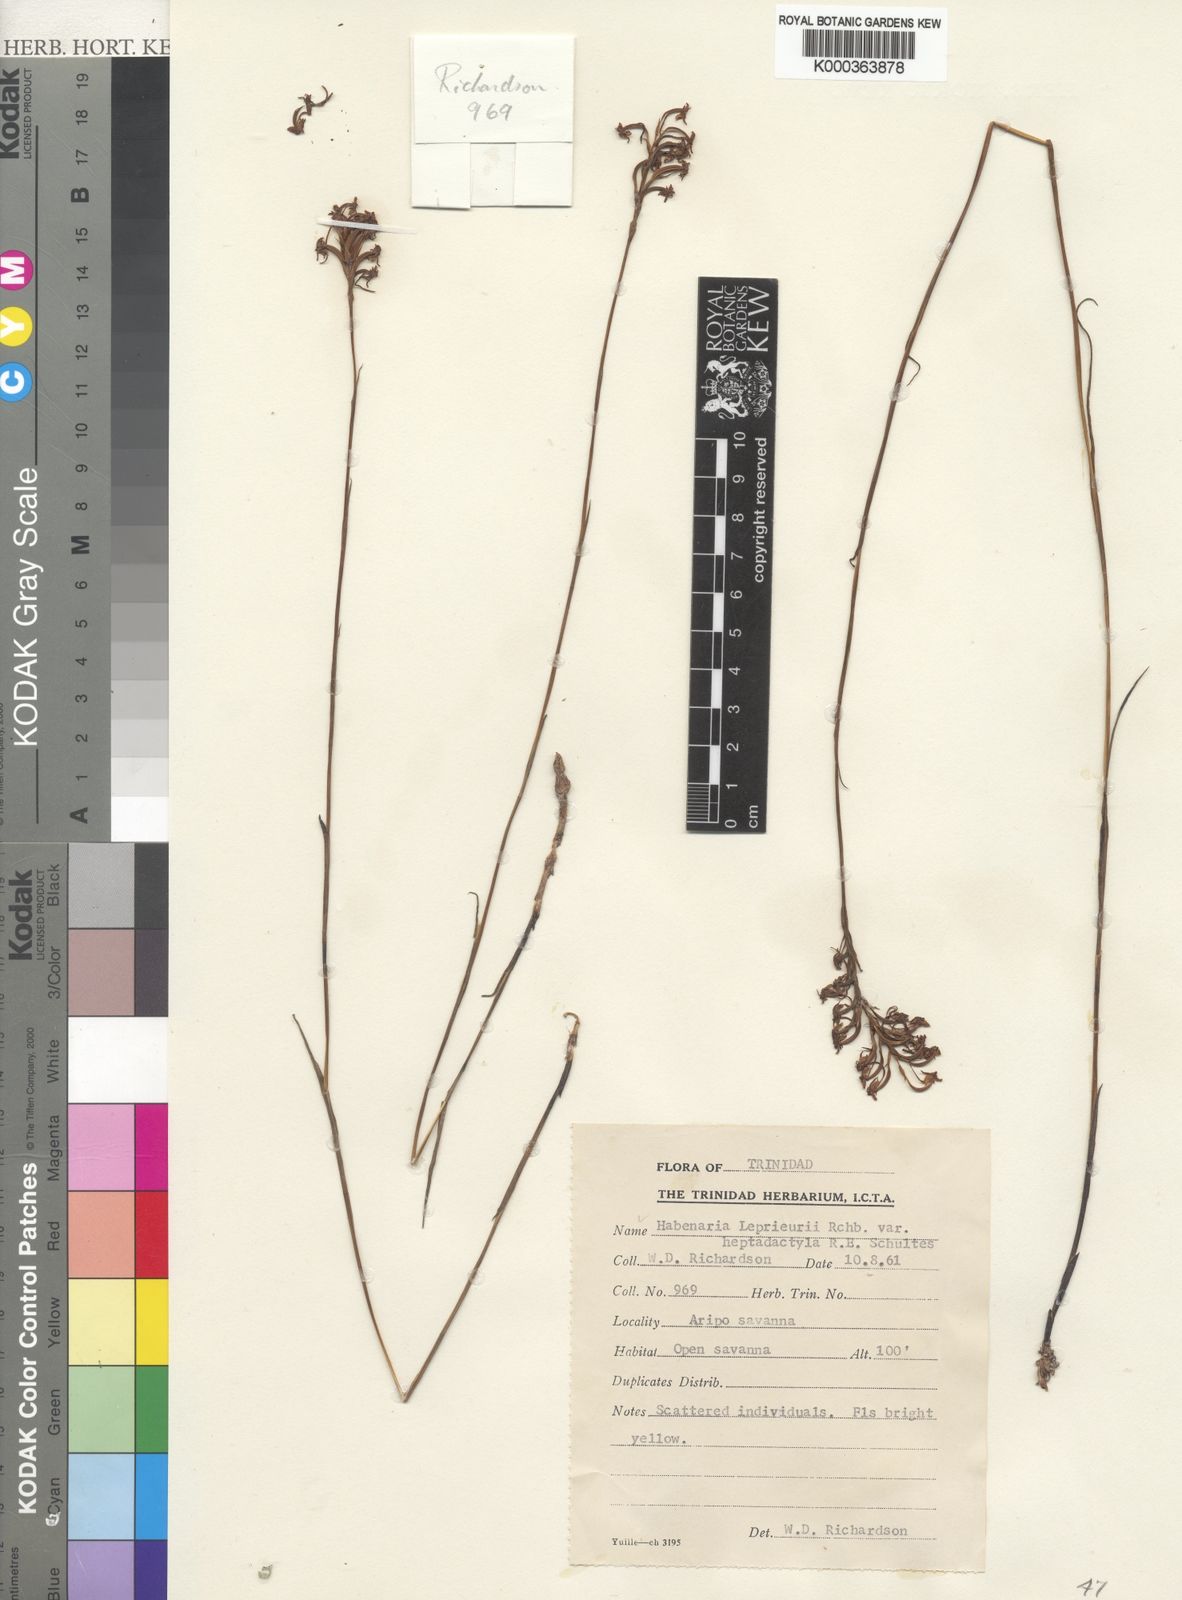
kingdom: Plantae
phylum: Tracheophyta
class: Liliopsida
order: Asparagales
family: Orchidaceae
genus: Habenaria
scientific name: Habenaria heptadactyla
